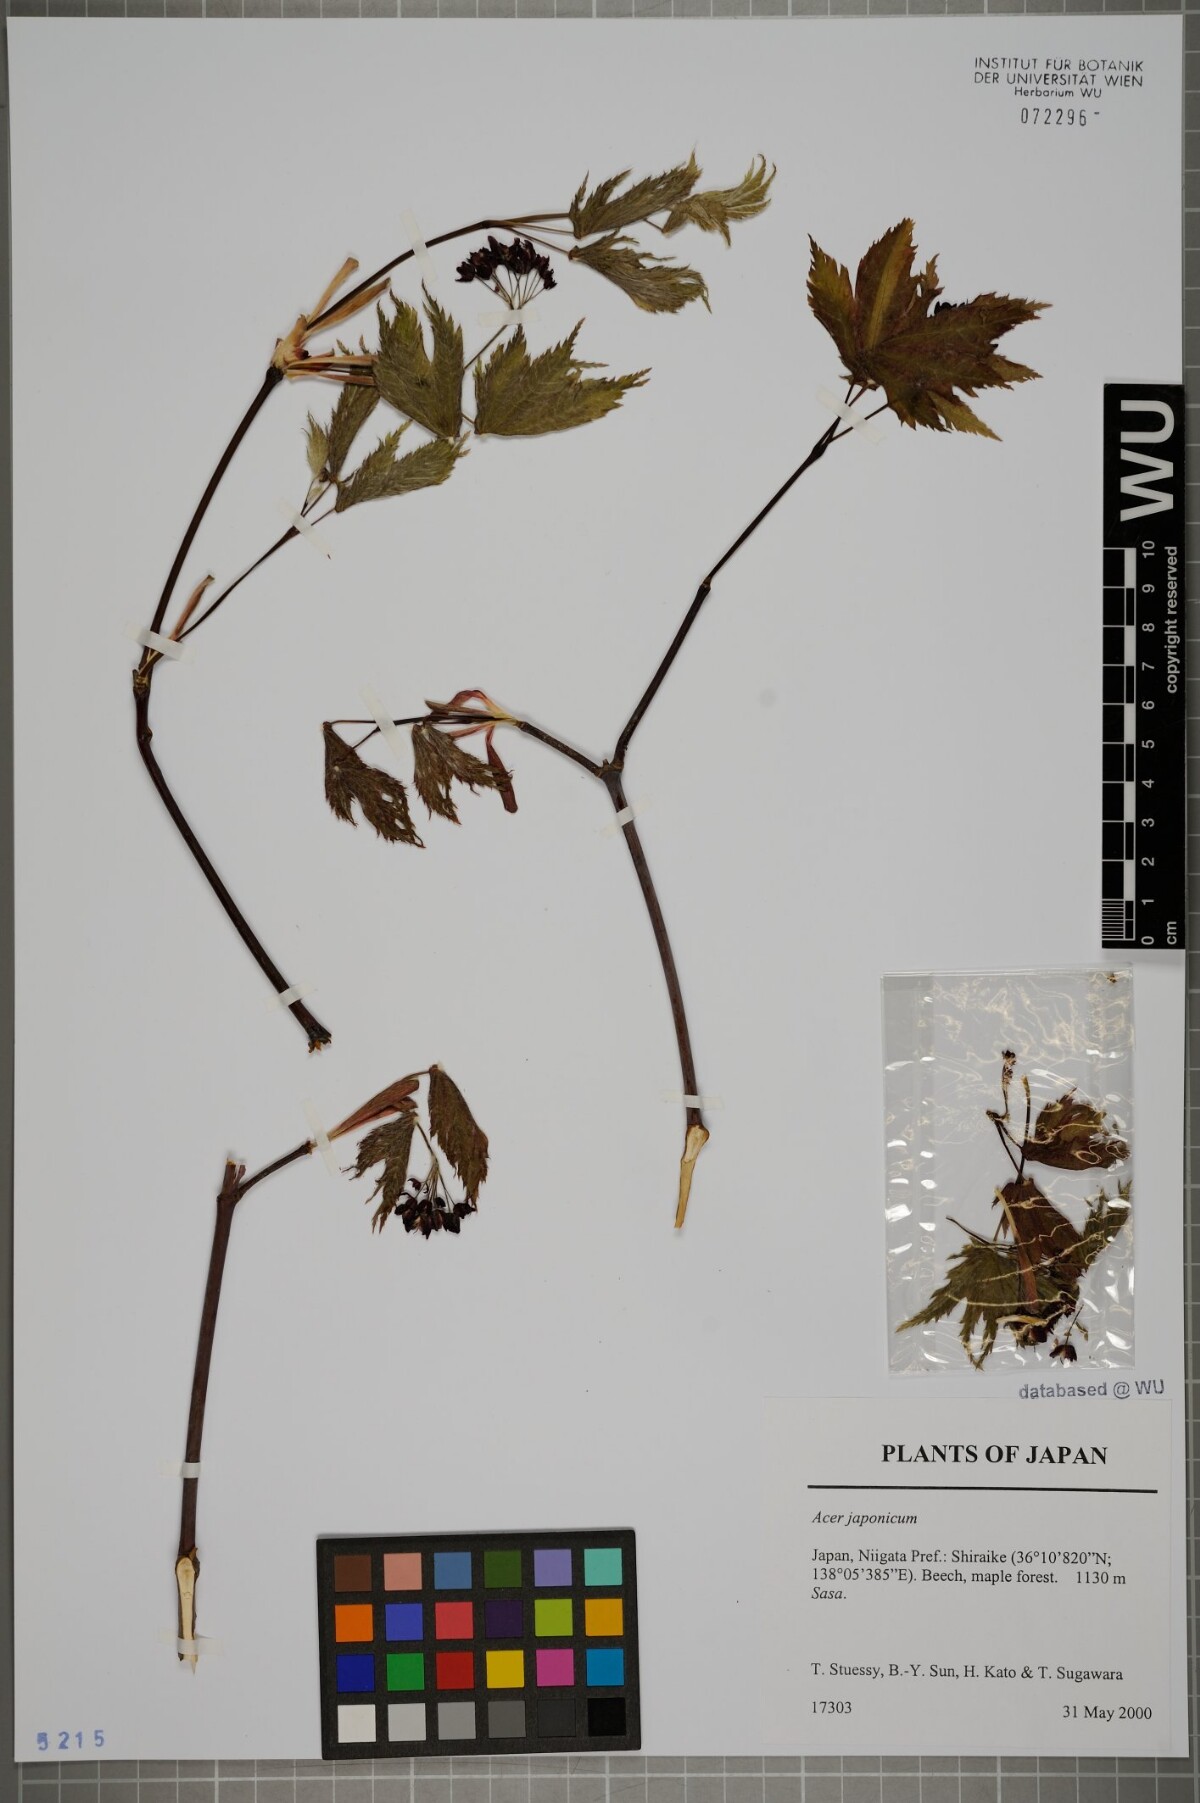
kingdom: Plantae
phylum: Tracheophyta
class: Magnoliopsida
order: Sapindales
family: Sapindaceae
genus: Acer
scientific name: Acer japonicum
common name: Amur maple
